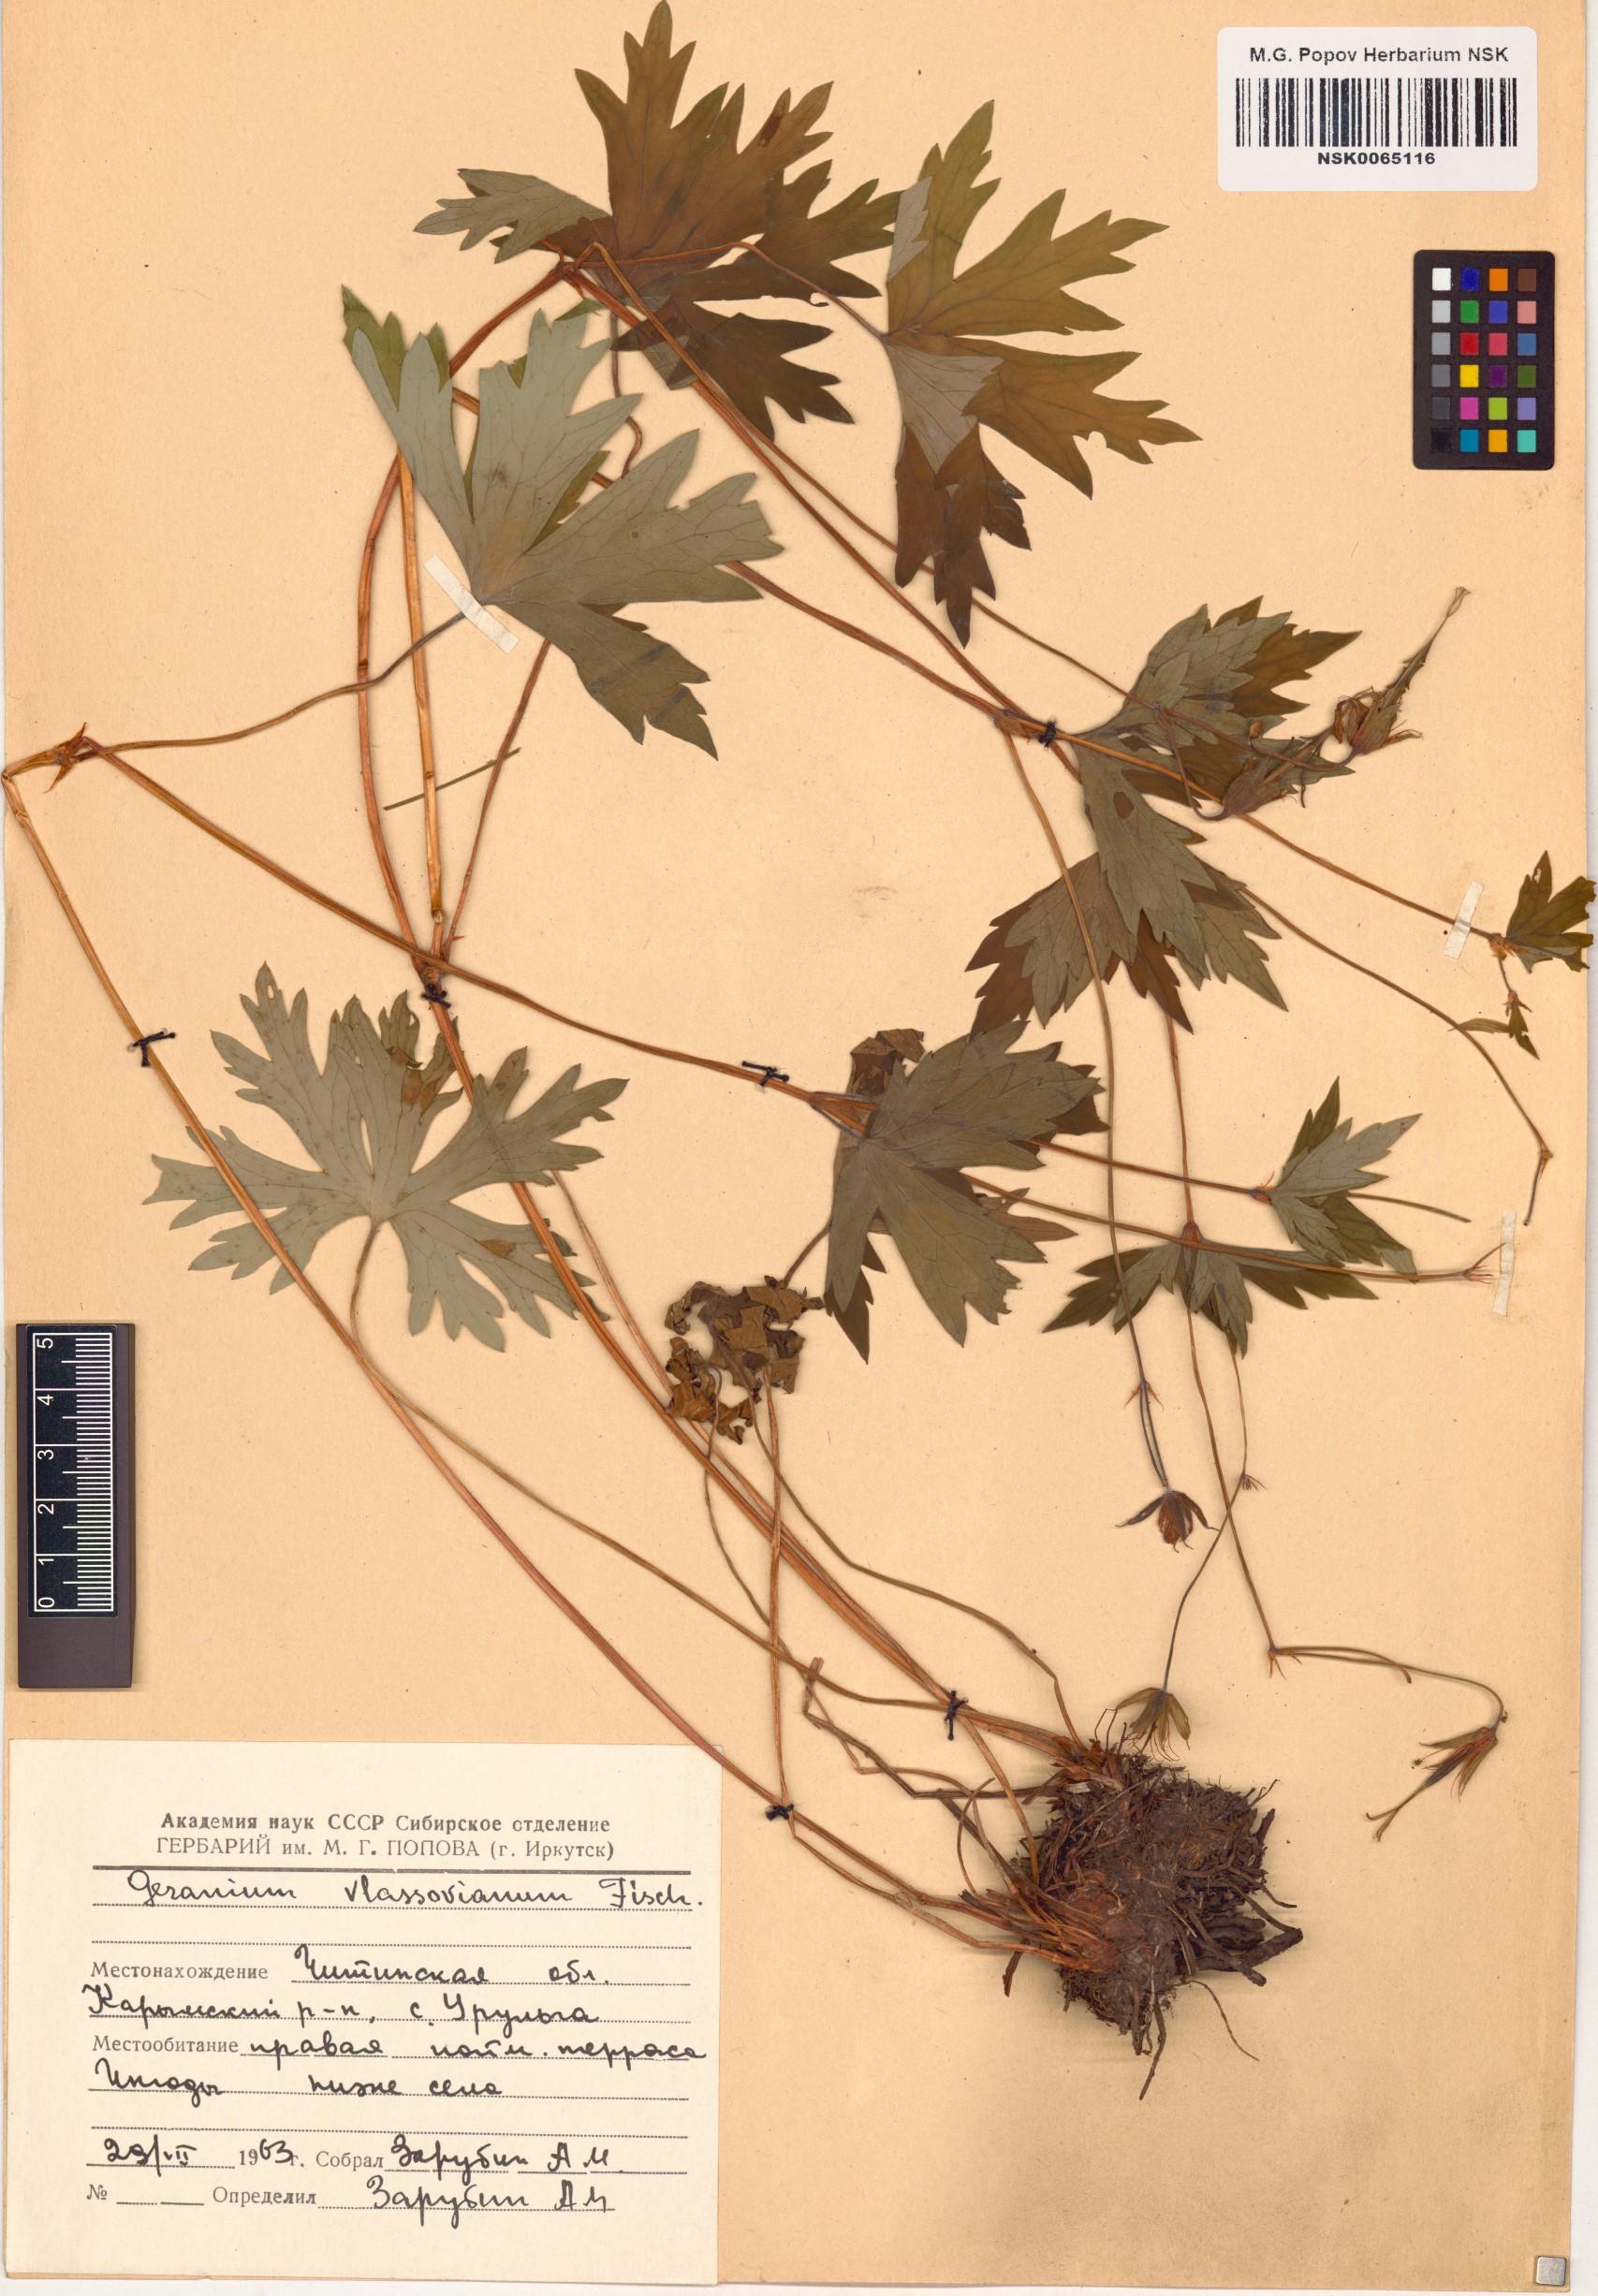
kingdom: Plantae
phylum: Tracheophyta
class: Magnoliopsida
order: Geraniales
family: Geraniaceae
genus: Geranium
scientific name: Geranium wlassovianum
